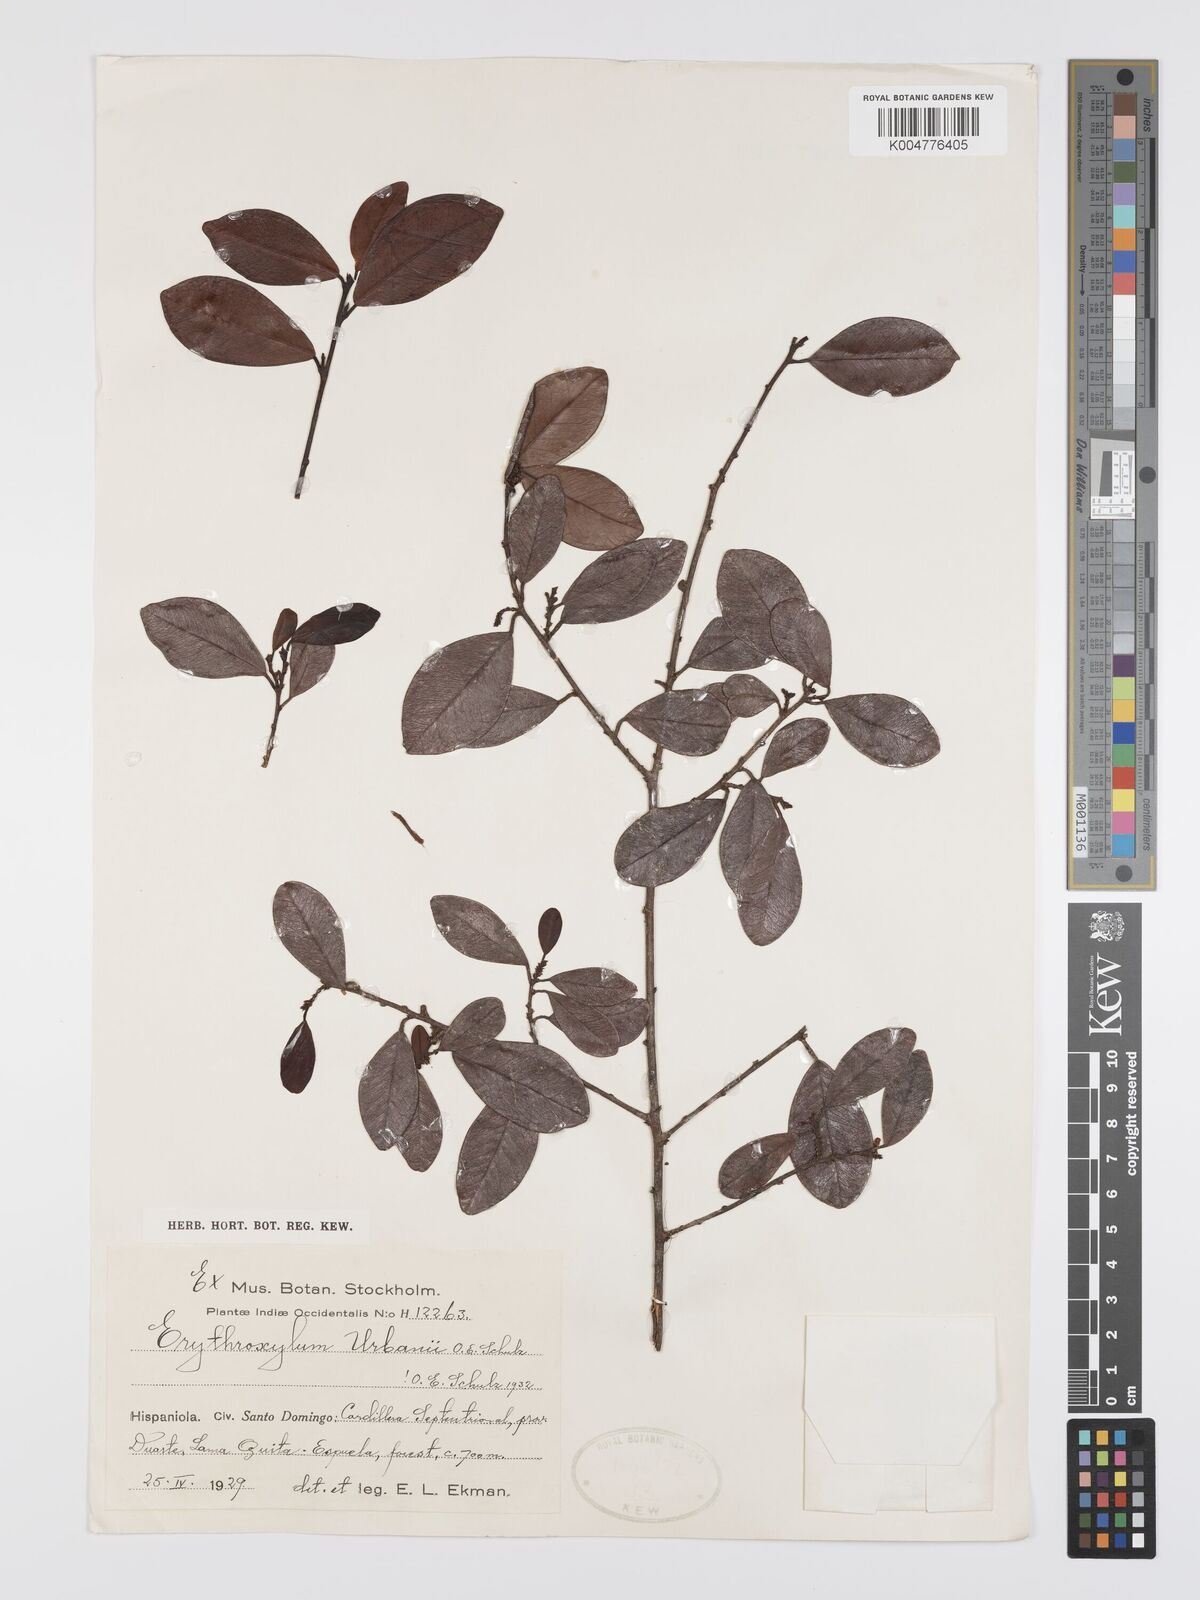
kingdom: Plantae
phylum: Tracheophyta
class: Magnoliopsida
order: Malpighiales
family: Erythroxylaceae
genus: Erythroxylum
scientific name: Erythroxylum urbanii
